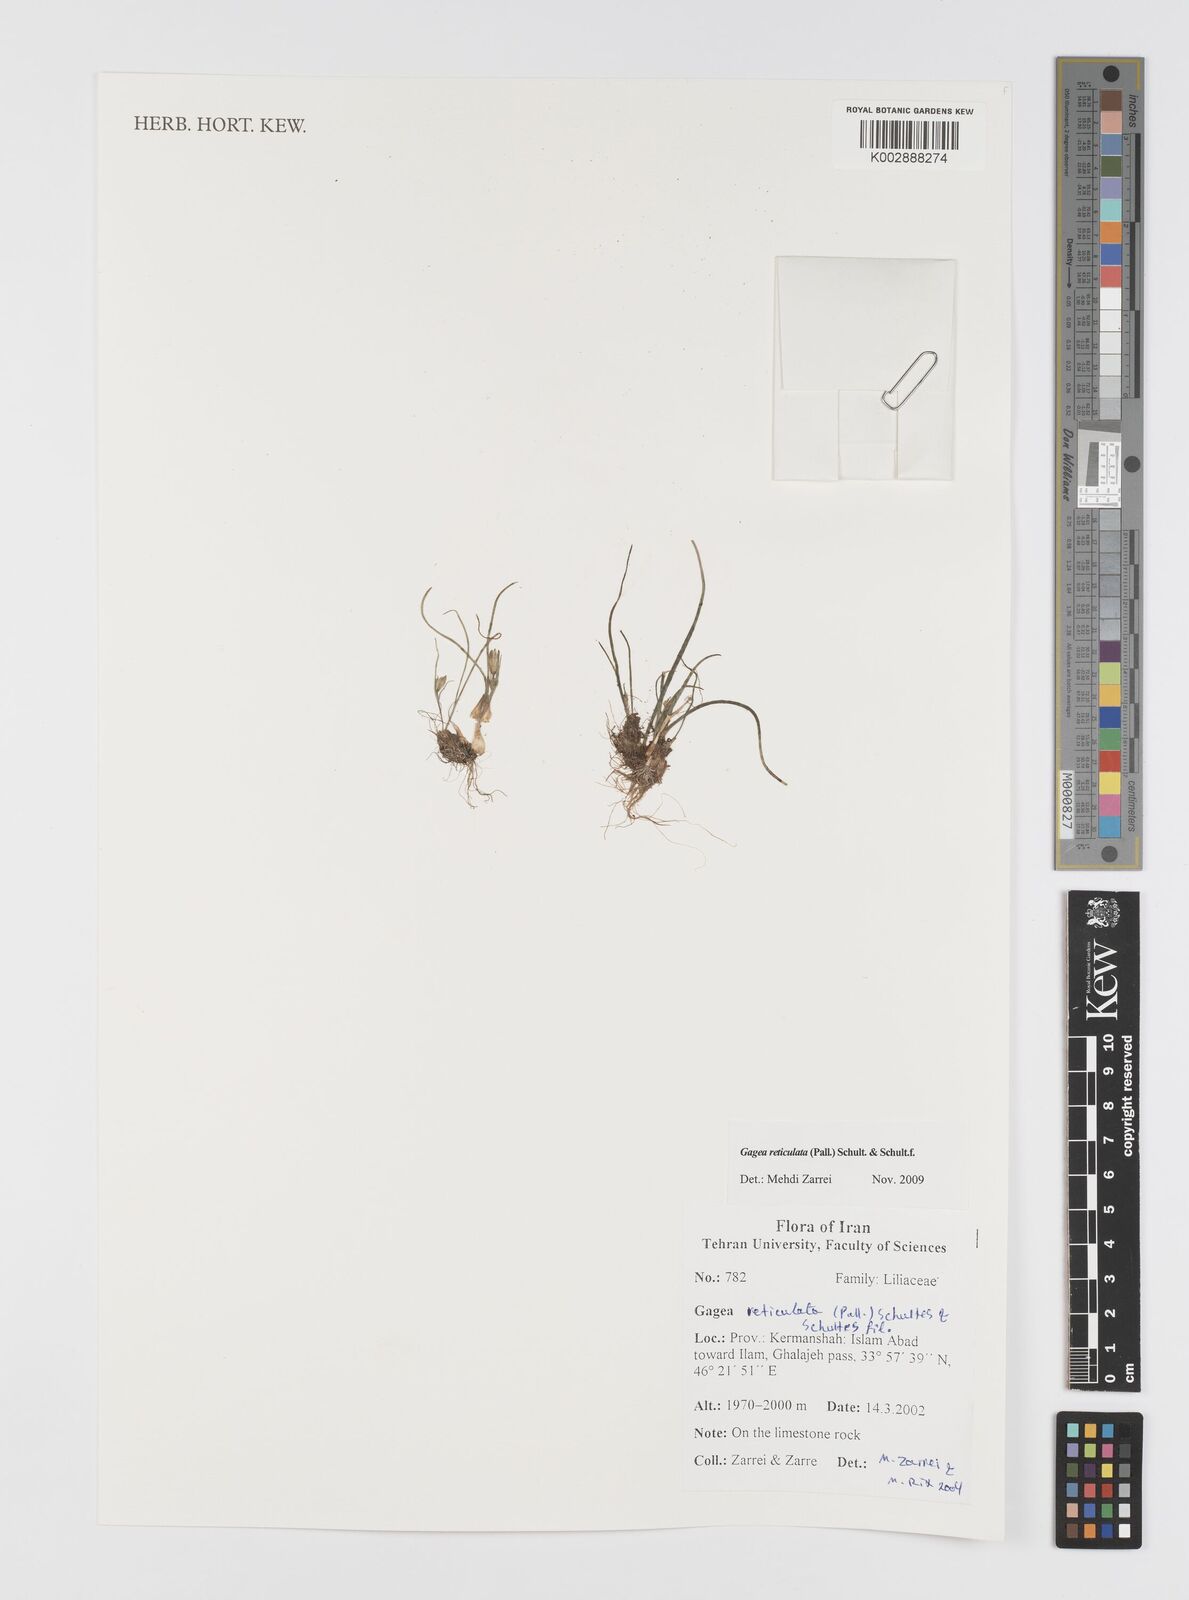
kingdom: Plantae
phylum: Tracheophyta
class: Liliopsida
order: Liliales
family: Liliaceae
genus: Gagea
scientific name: Gagea reticulata
